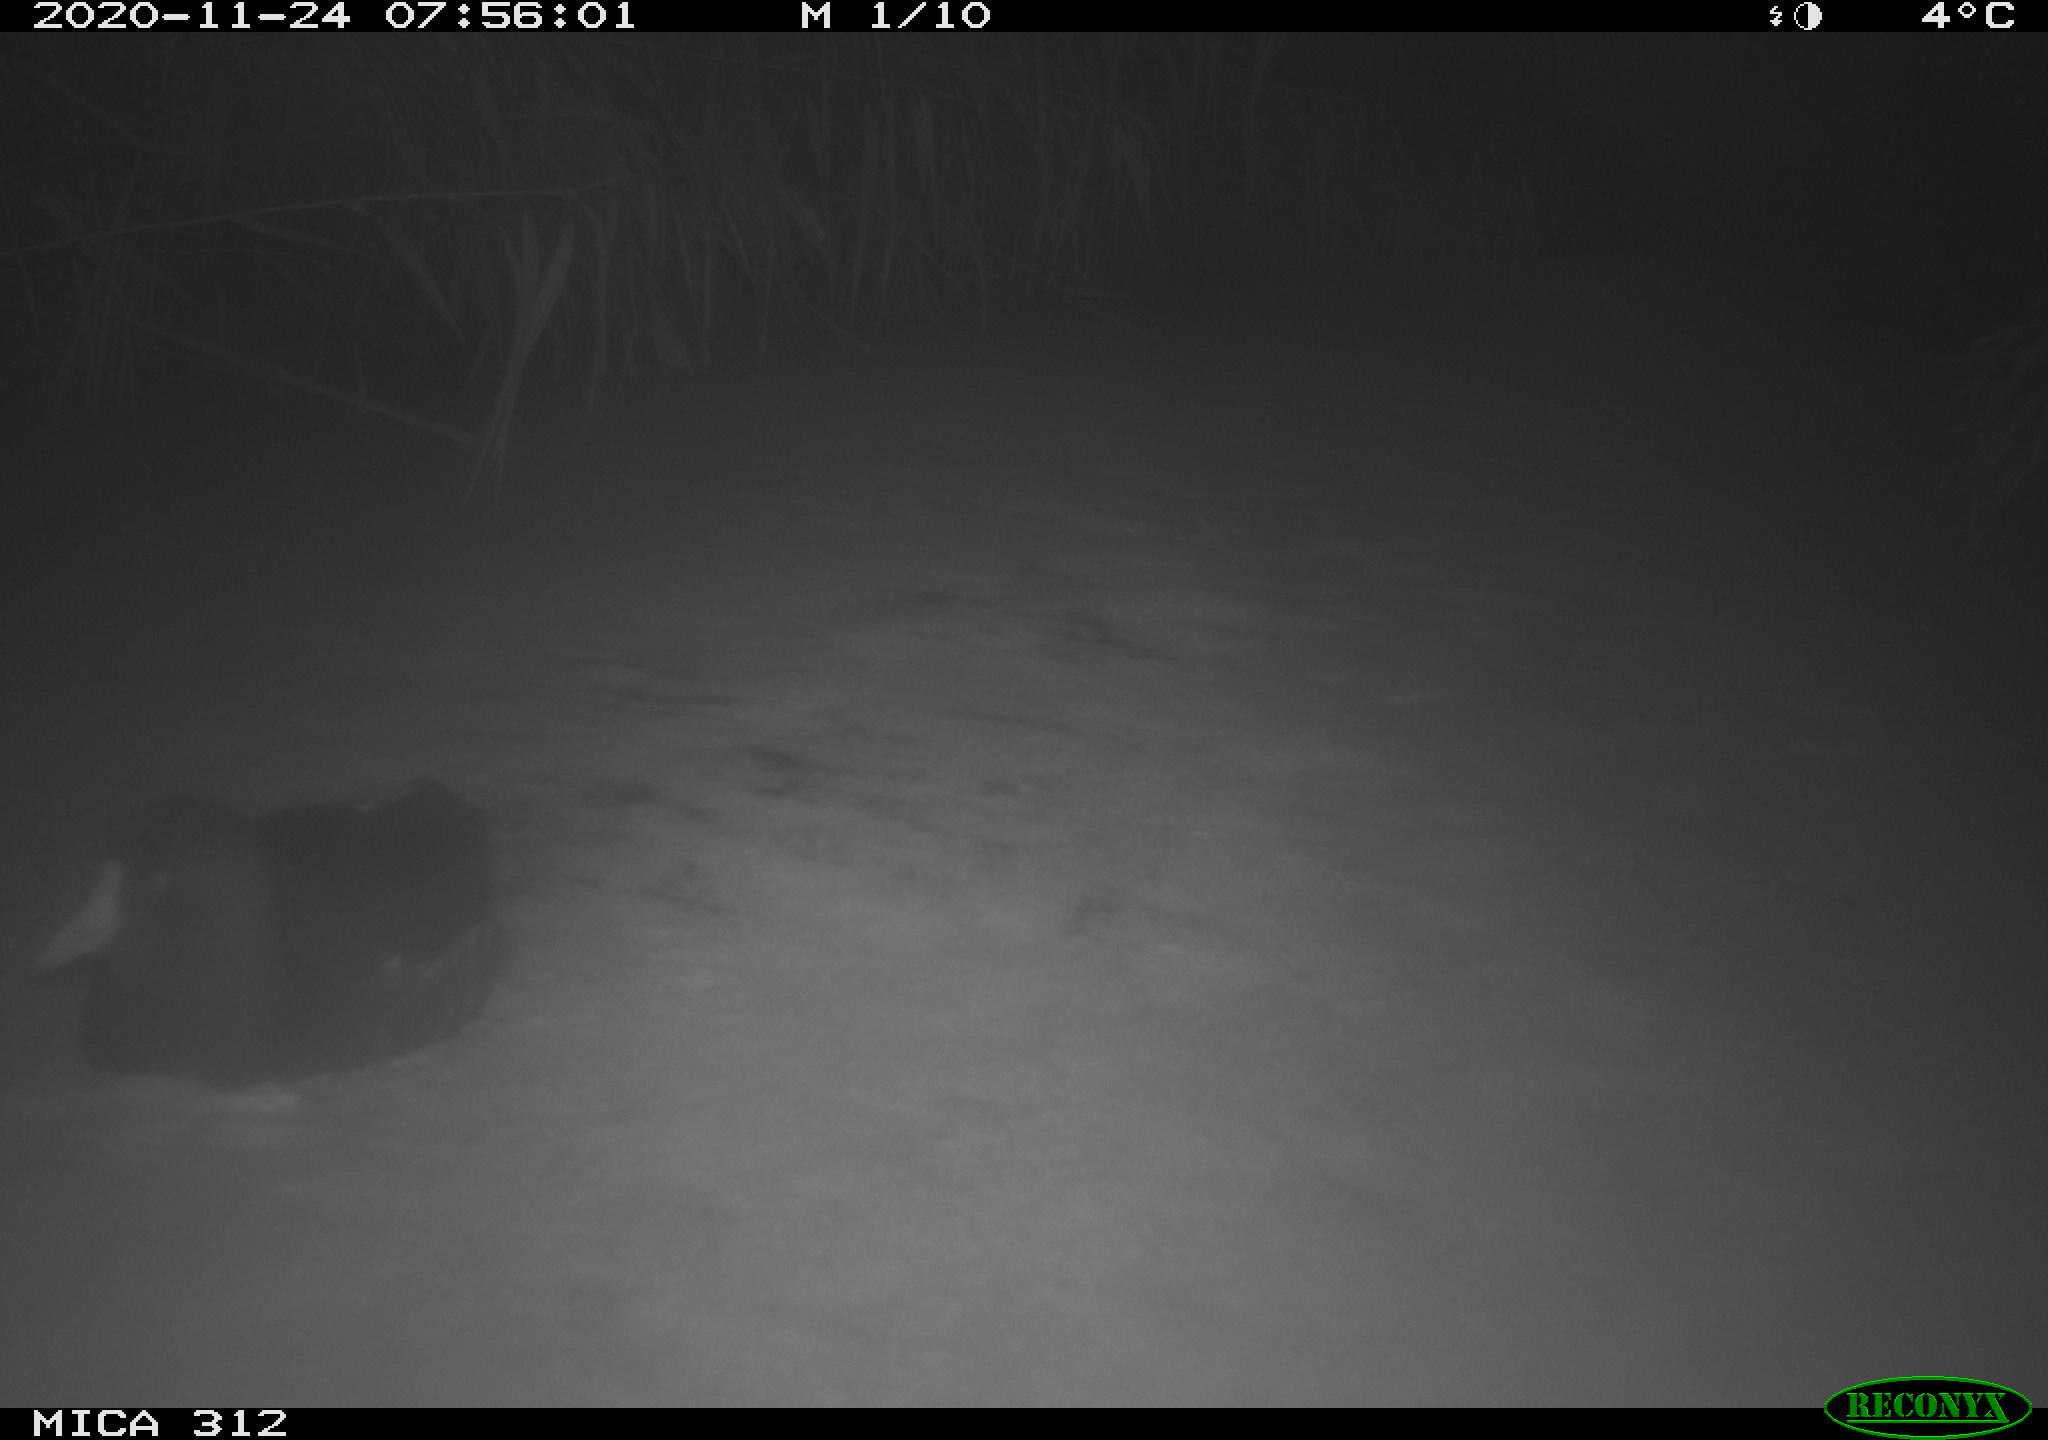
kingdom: Animalia
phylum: Chordata
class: Aves
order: Gruiformes
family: Rallidae
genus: Gallinula
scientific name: Gallinula chloropus
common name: Common moorhen
